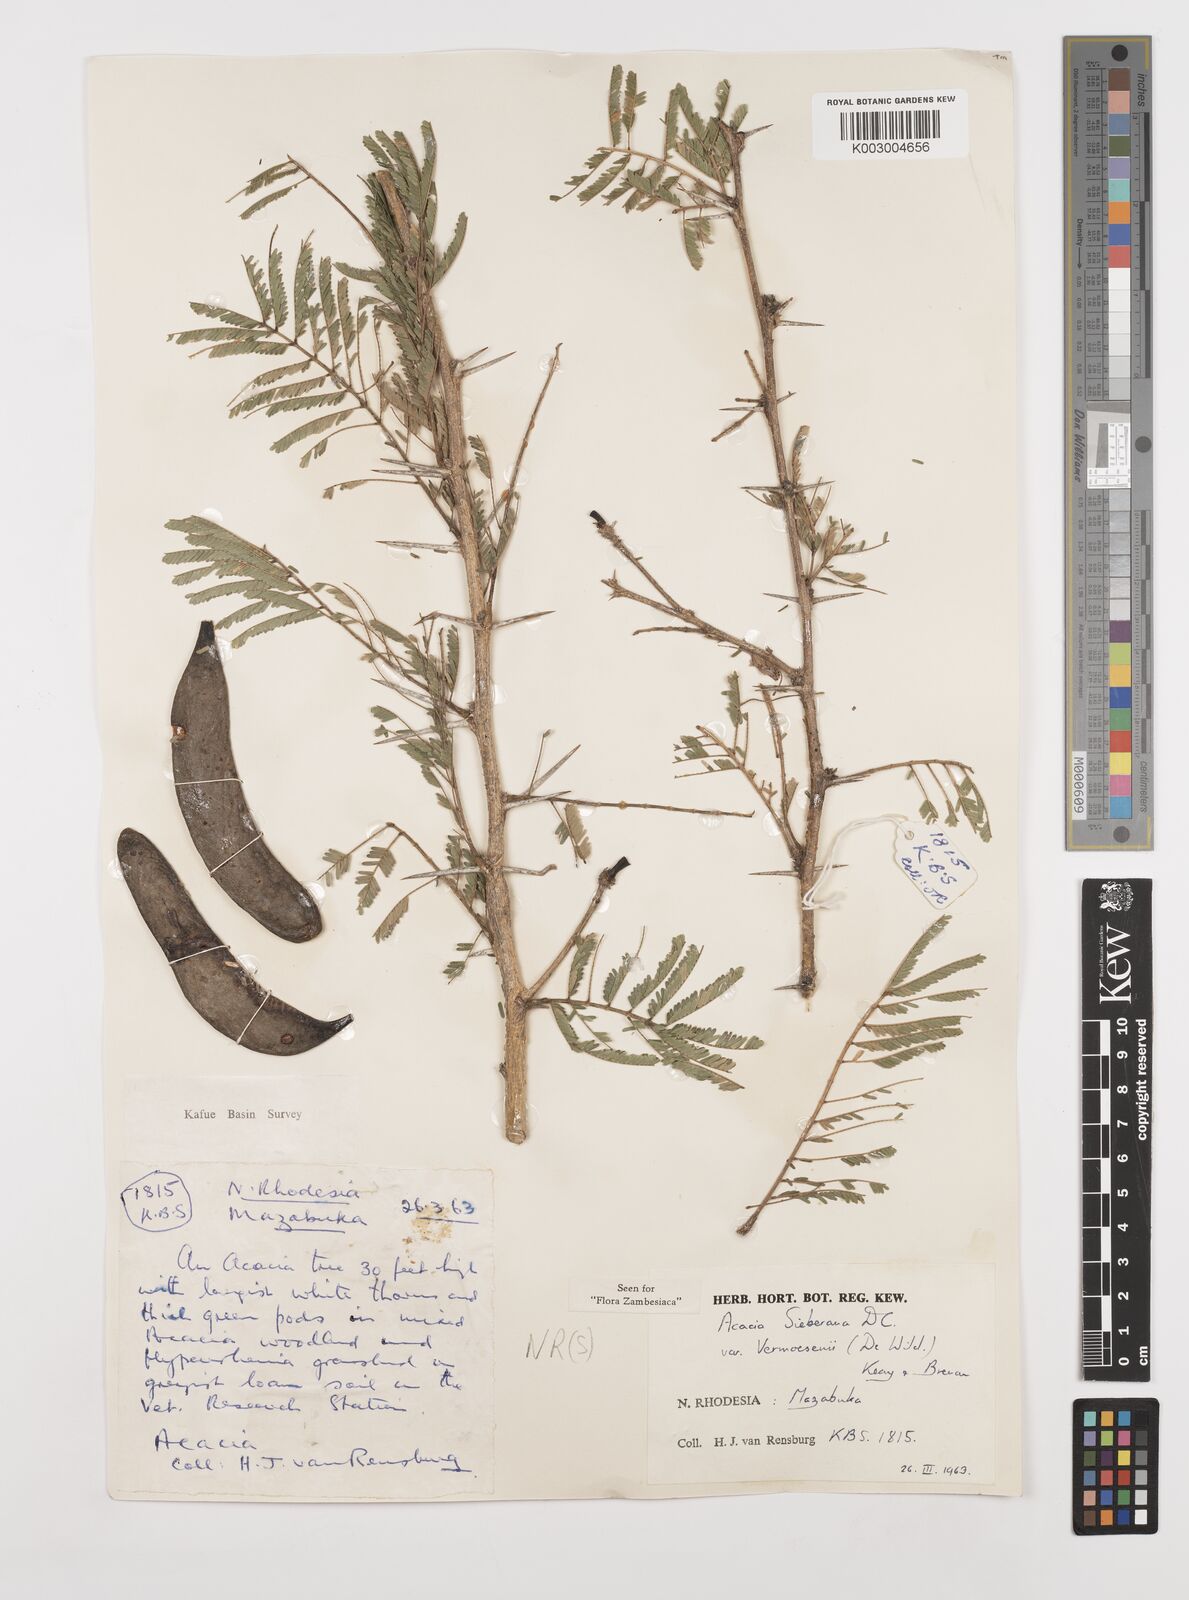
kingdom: Plantae
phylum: Tracheophyta
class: Magnoliopsida
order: Fabales
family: Fabaceae
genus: Vachellia
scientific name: Vachellia sieberiana
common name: Flat-topped thorn
